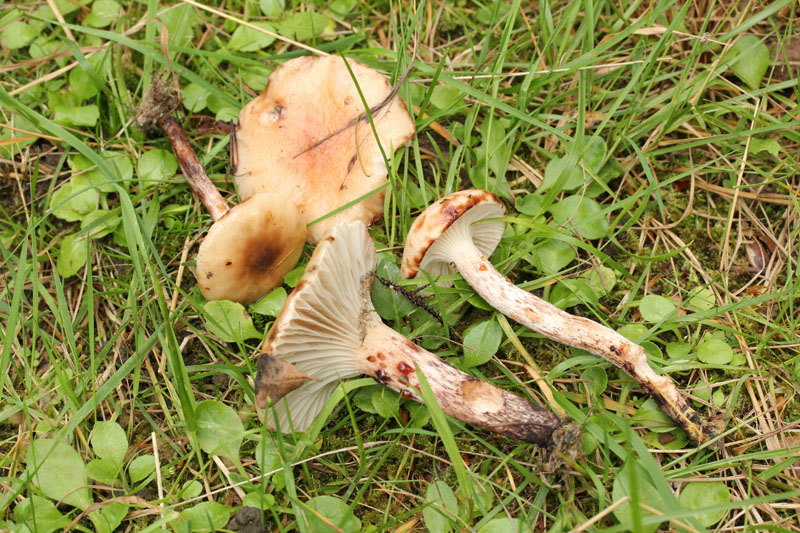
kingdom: Fungi
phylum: Basidiomycota
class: Agaricomycetes
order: Boletales
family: Gomphidiaceae
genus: Gomphidius
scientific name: Gomphidius maculatus
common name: rødmende slimslør
